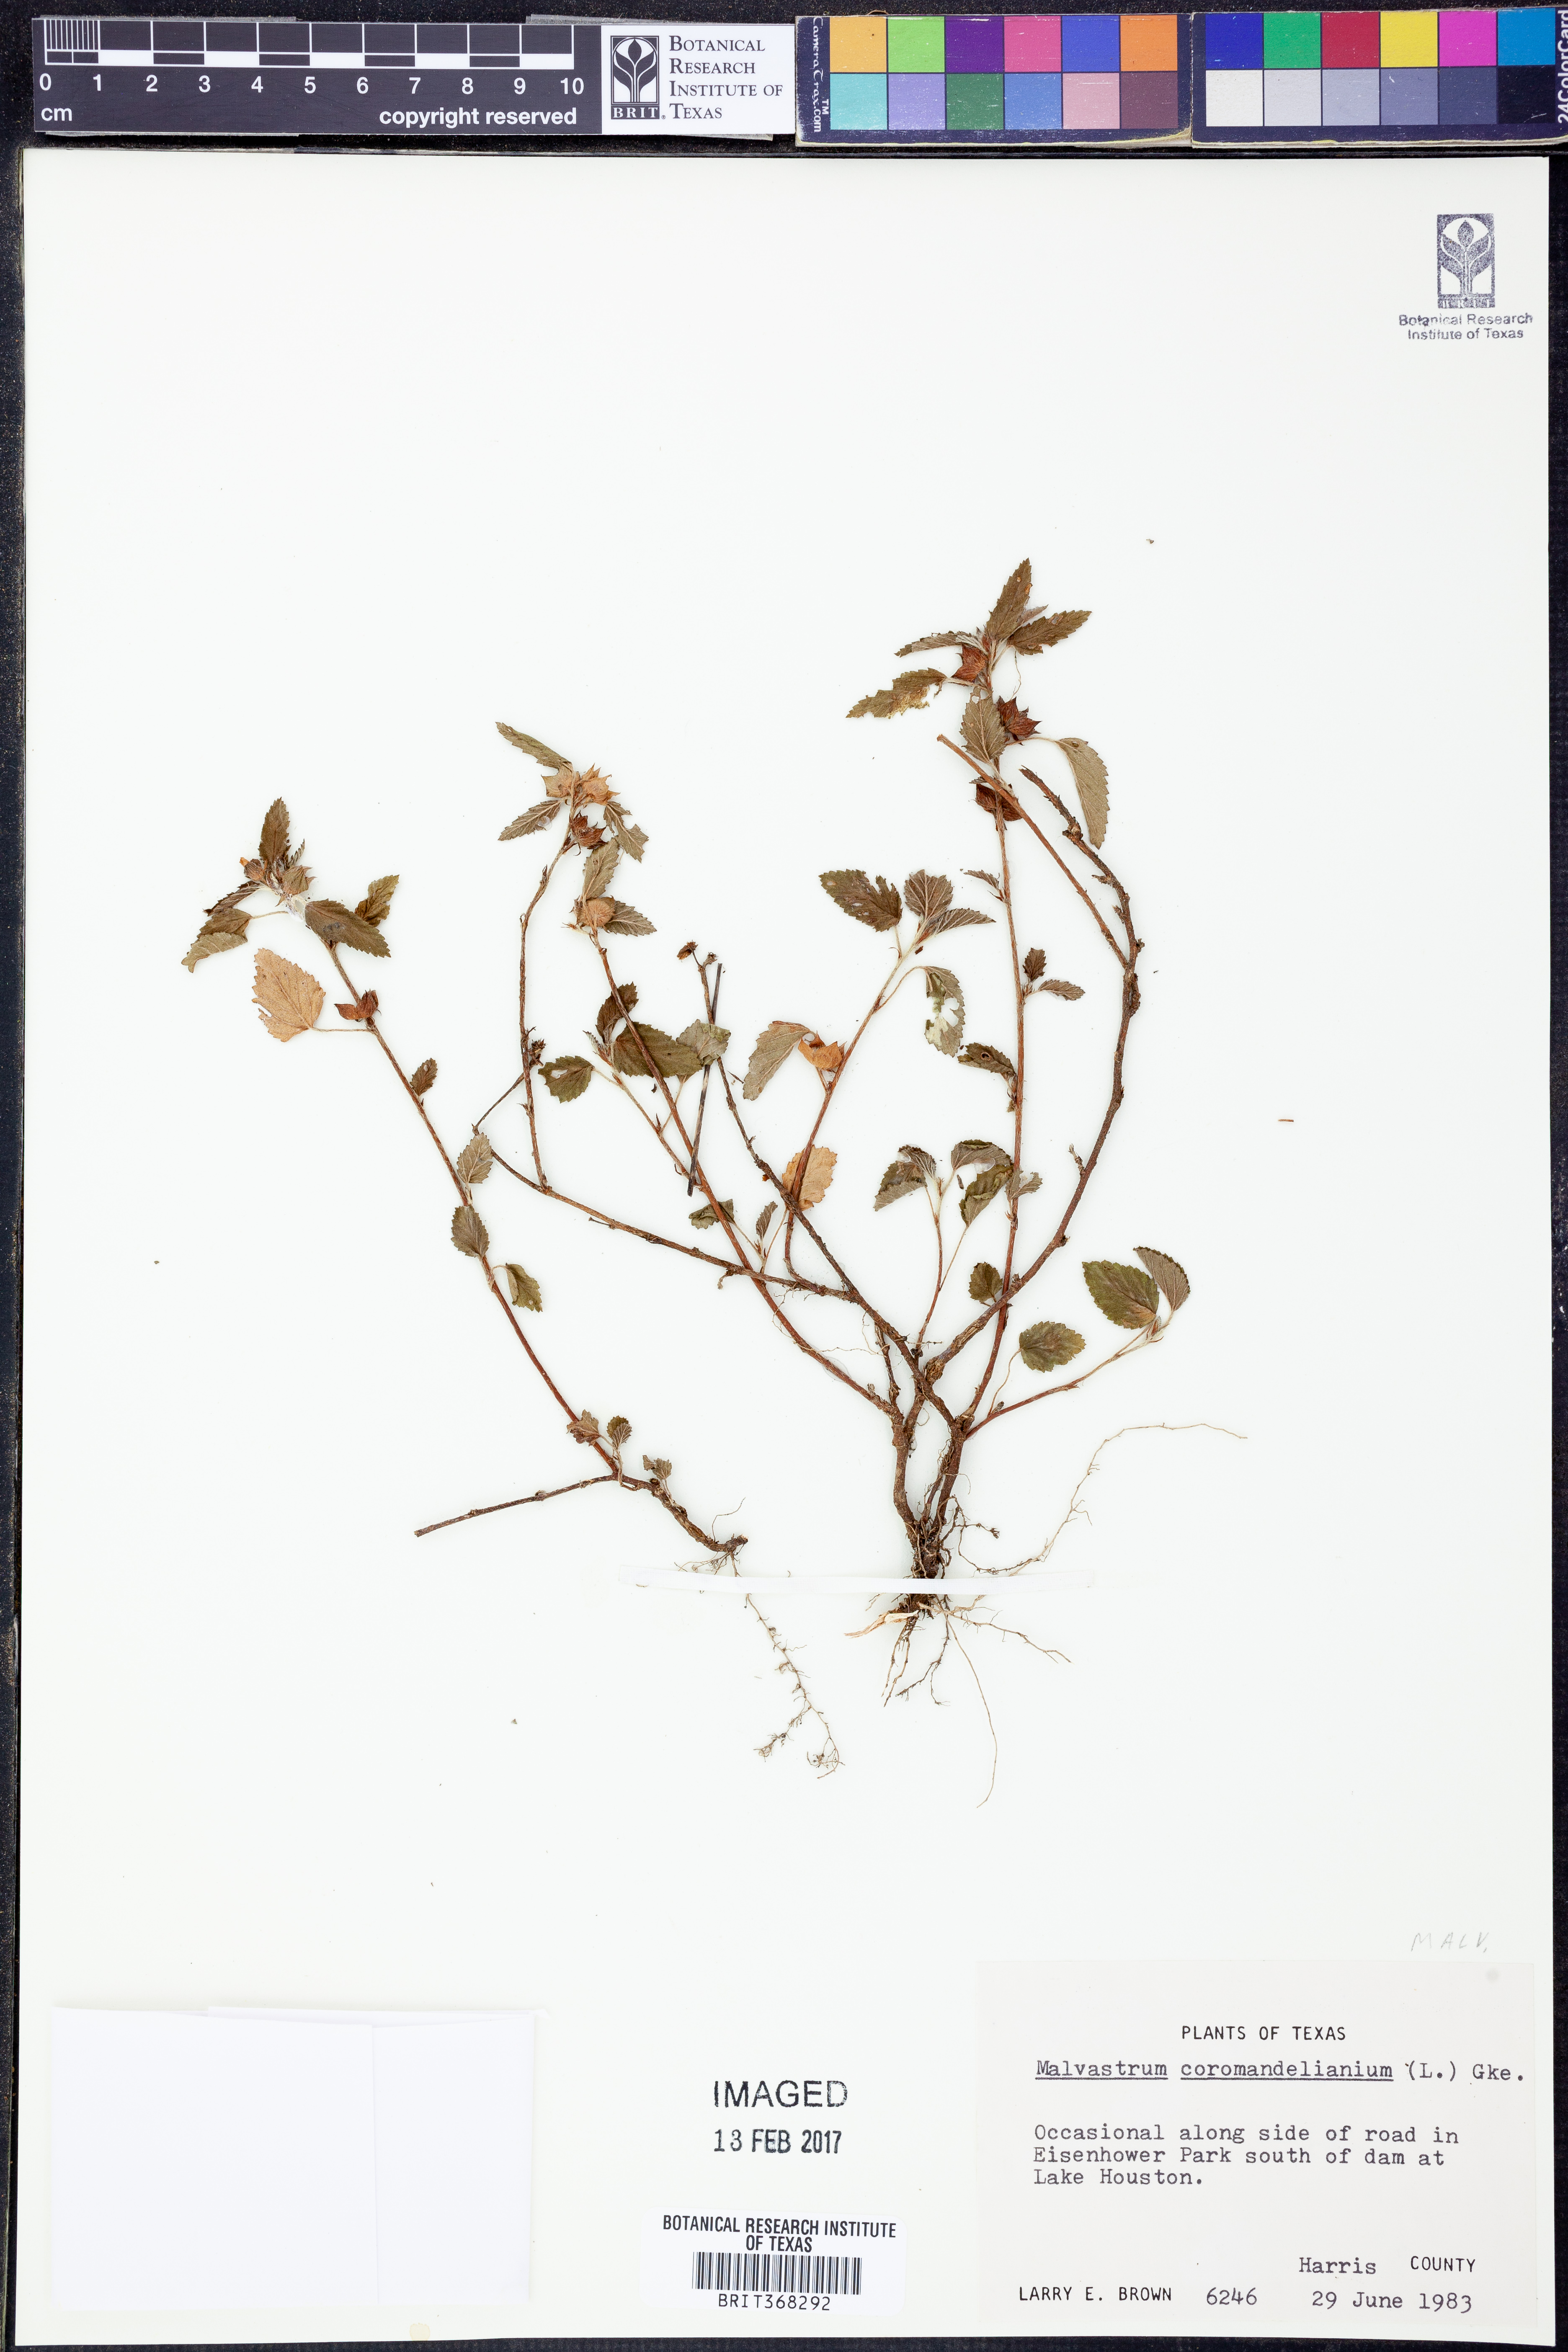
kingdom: Plantae
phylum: Tracheophyta
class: Magnoliopsida
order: Malvales
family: Malvaceae
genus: Malvastrum
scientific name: Malvastrum coromandelianum
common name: Threelobe false mallow
